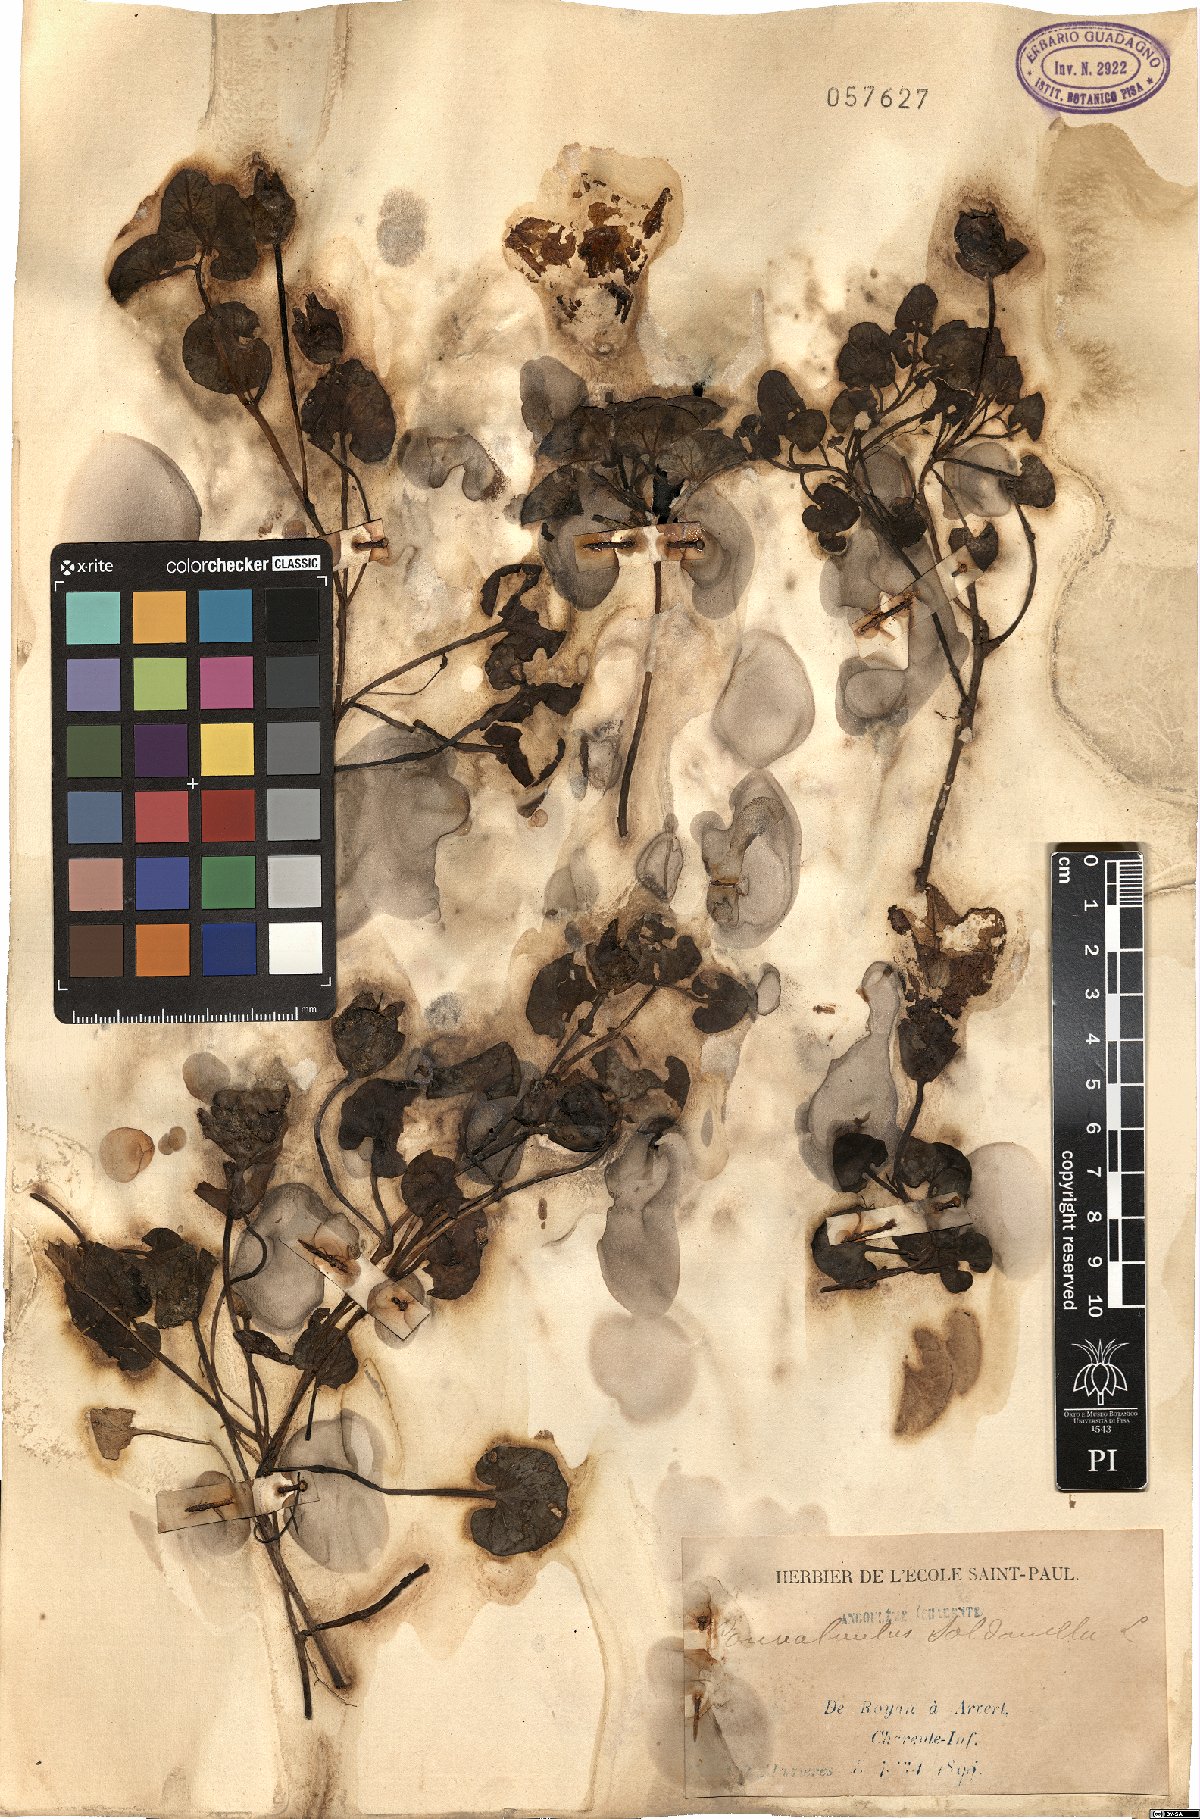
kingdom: Plantae
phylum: Tracheophyta
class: Magnoliopsida
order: Solanales
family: Convolvulaceae
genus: Calystegia
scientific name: Calystegia soldanella
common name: Sea bindweed
